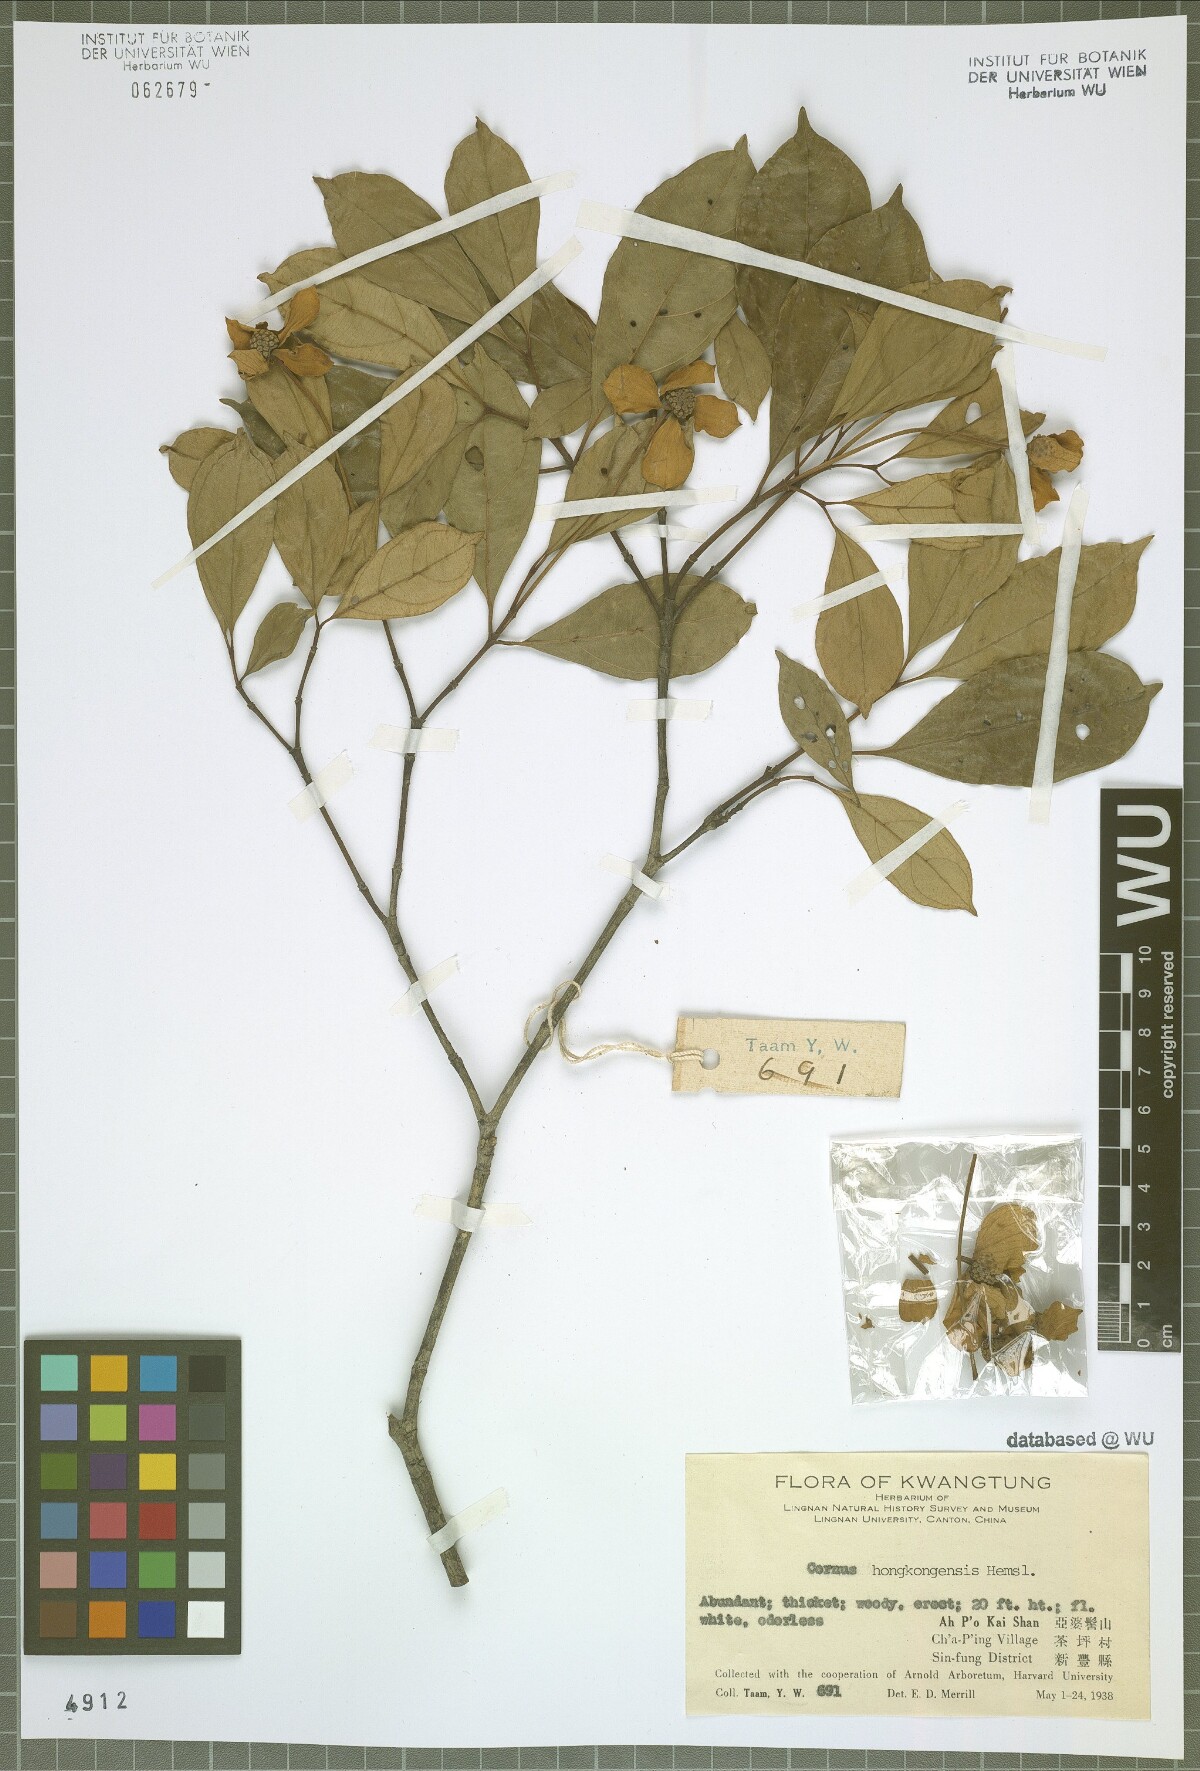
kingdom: Plantae
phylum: Tracheophyta
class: Magnoliopsida
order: Cornales
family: Cornaceae
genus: Cornus
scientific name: Cornus hongkongensis
